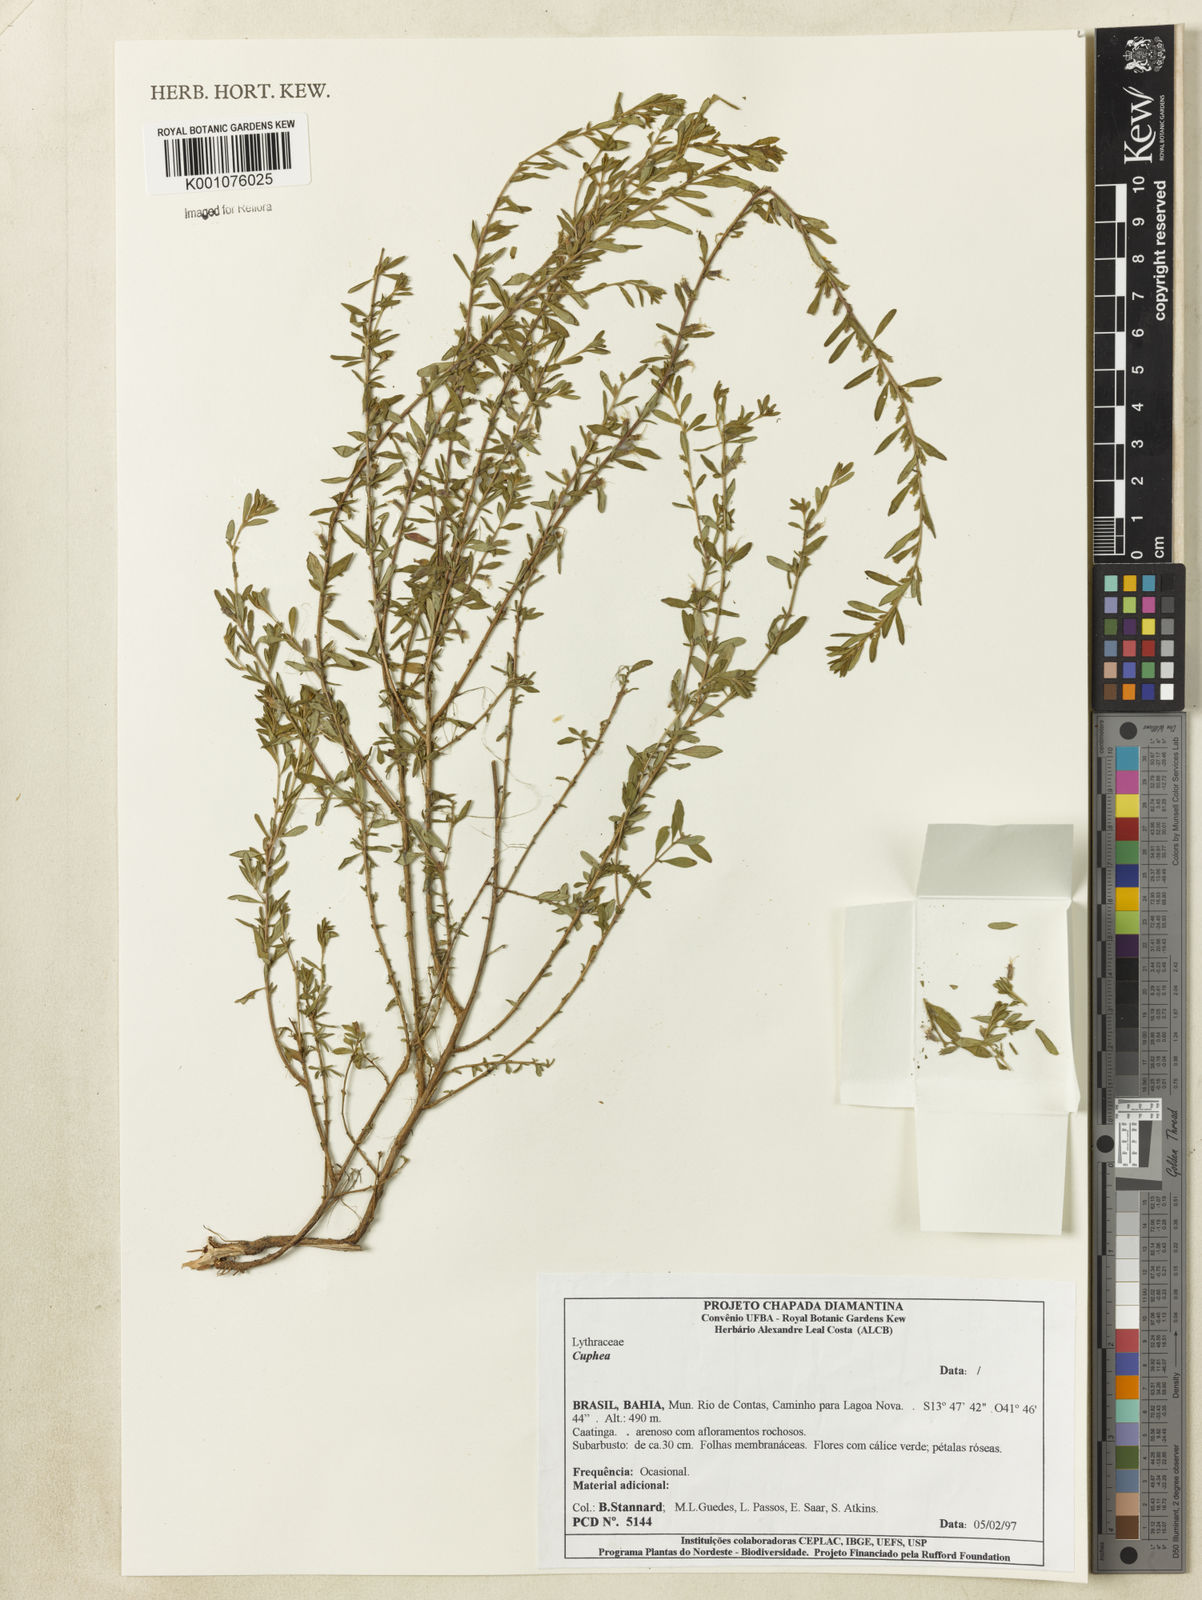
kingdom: Plantae
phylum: Tracheophyta
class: Magnoliopsida
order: Myrtales
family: Lythraceae
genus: Cuphea
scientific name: Cuphea
